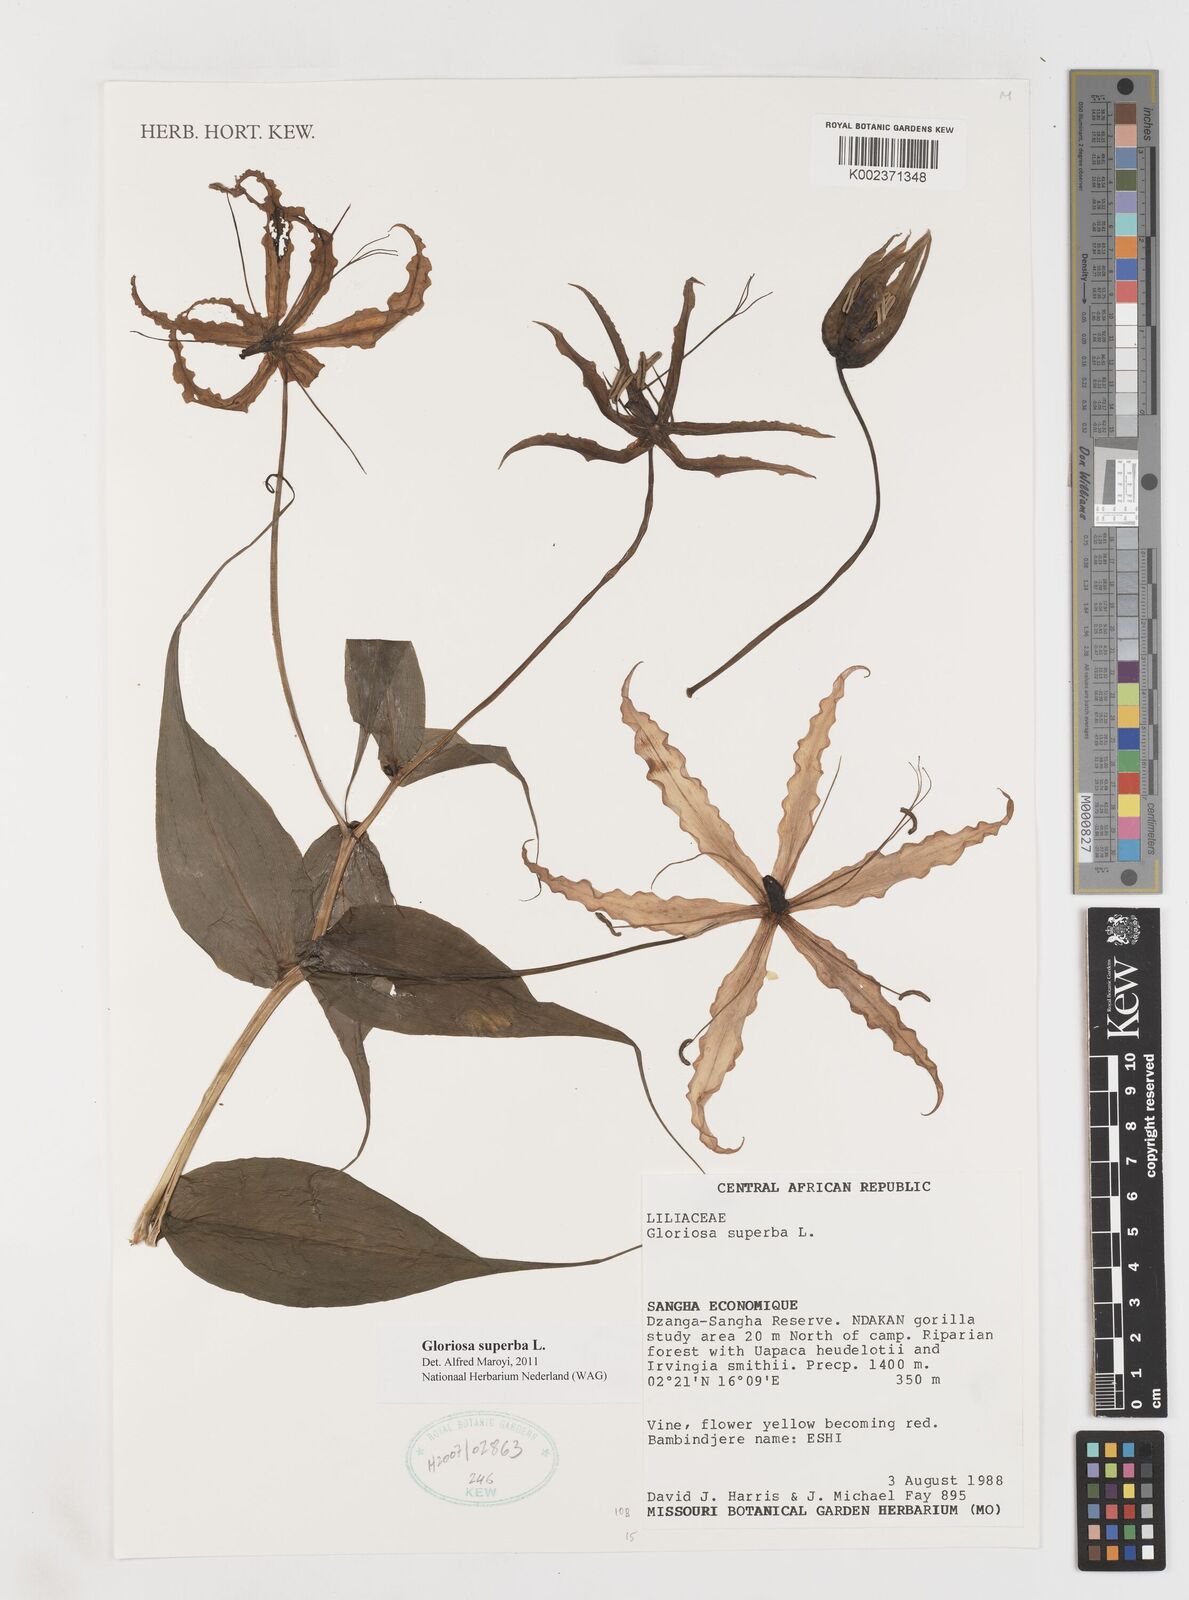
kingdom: Plantae
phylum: Tracheophyta
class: Liliopsida
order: Liliales
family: Colchicaceae
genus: Gloriosa
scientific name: Gloriosa superba
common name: Flame lily
